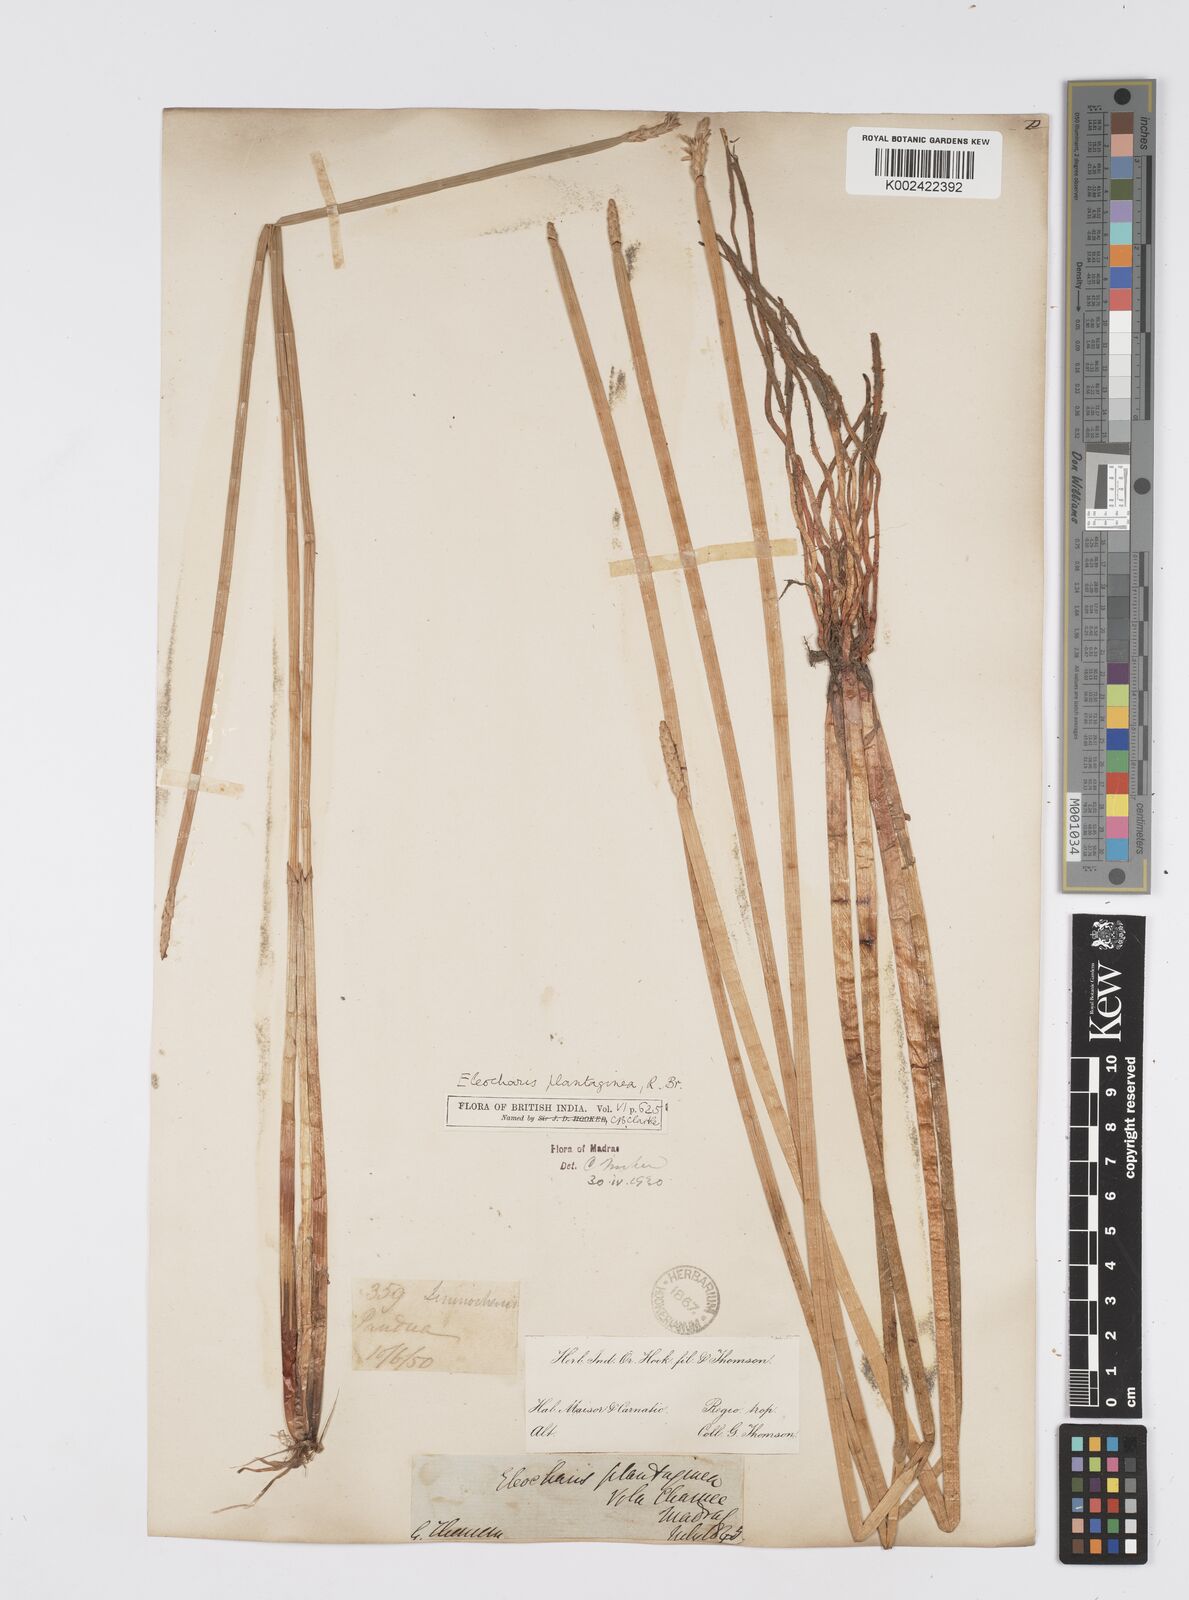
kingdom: Plantae
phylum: Tracheophyta
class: Liliopsida
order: Poales
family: Cyperaceae
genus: Eleocharis
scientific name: Eleocharis dulcis
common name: Chinese water chestnut
